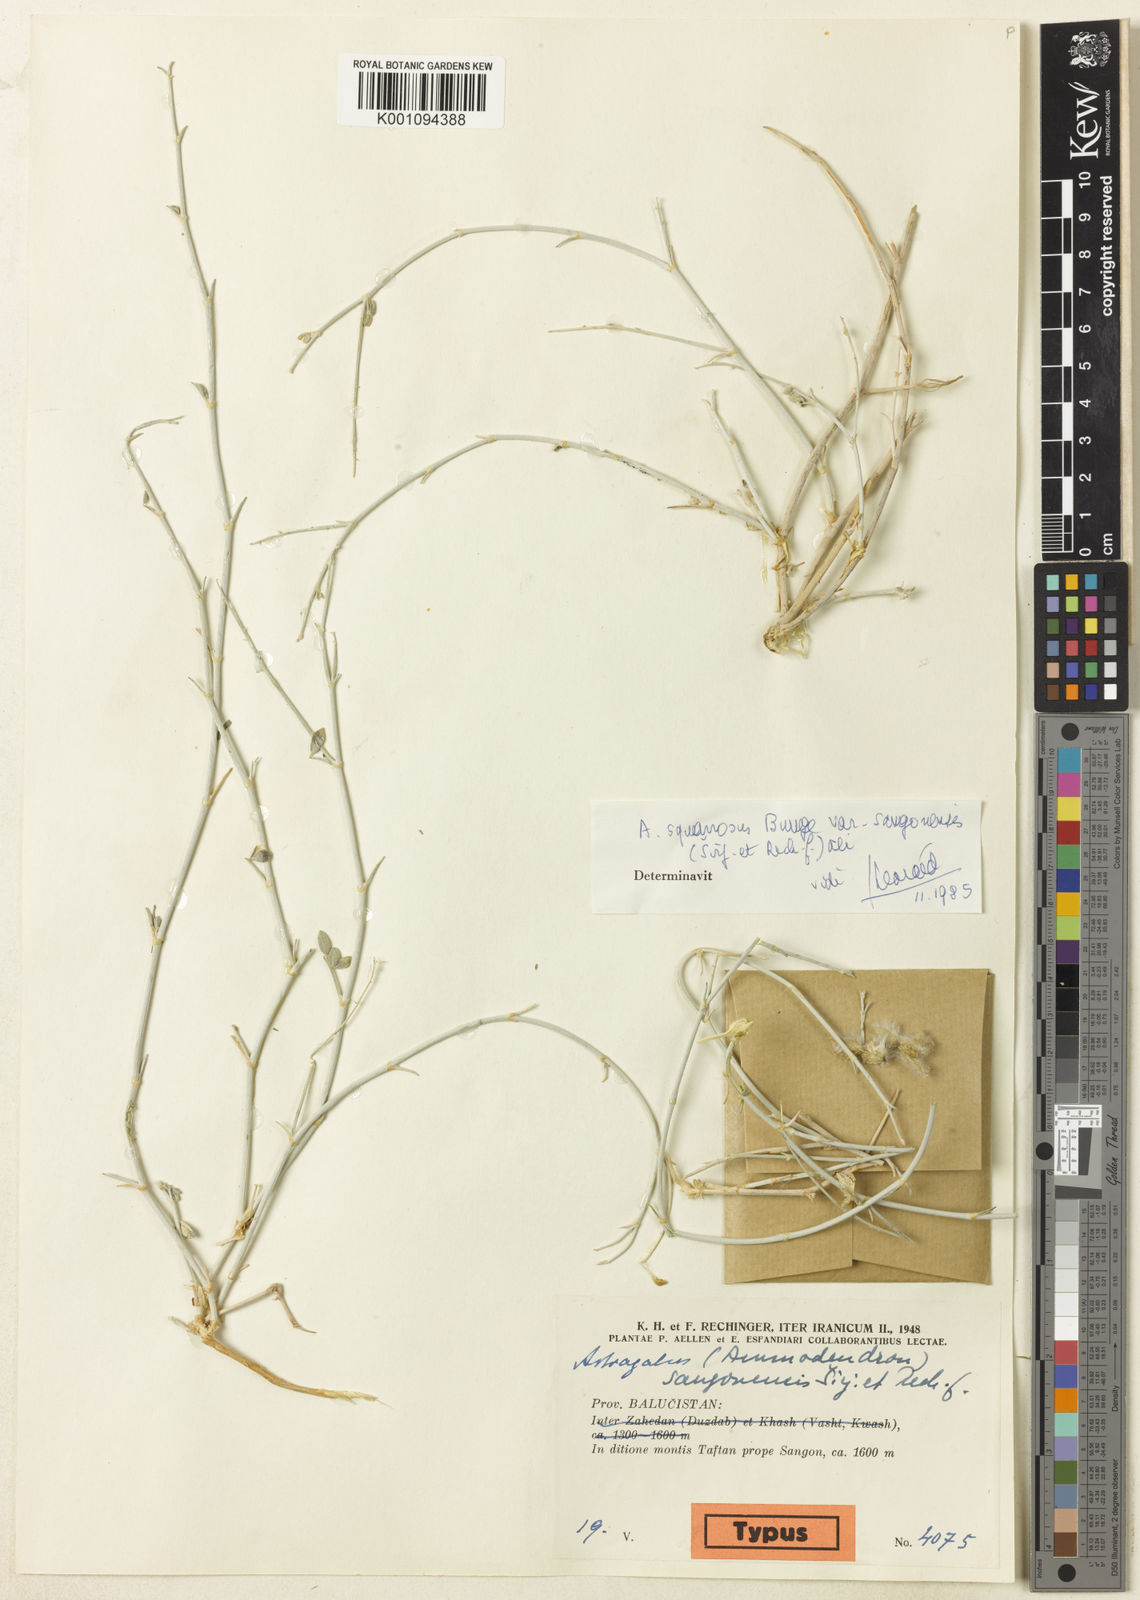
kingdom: Plantae
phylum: Tracheophyta
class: Magnoliopsida
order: Fabales
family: Fabaceae
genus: Astragalus
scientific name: Astragalus
